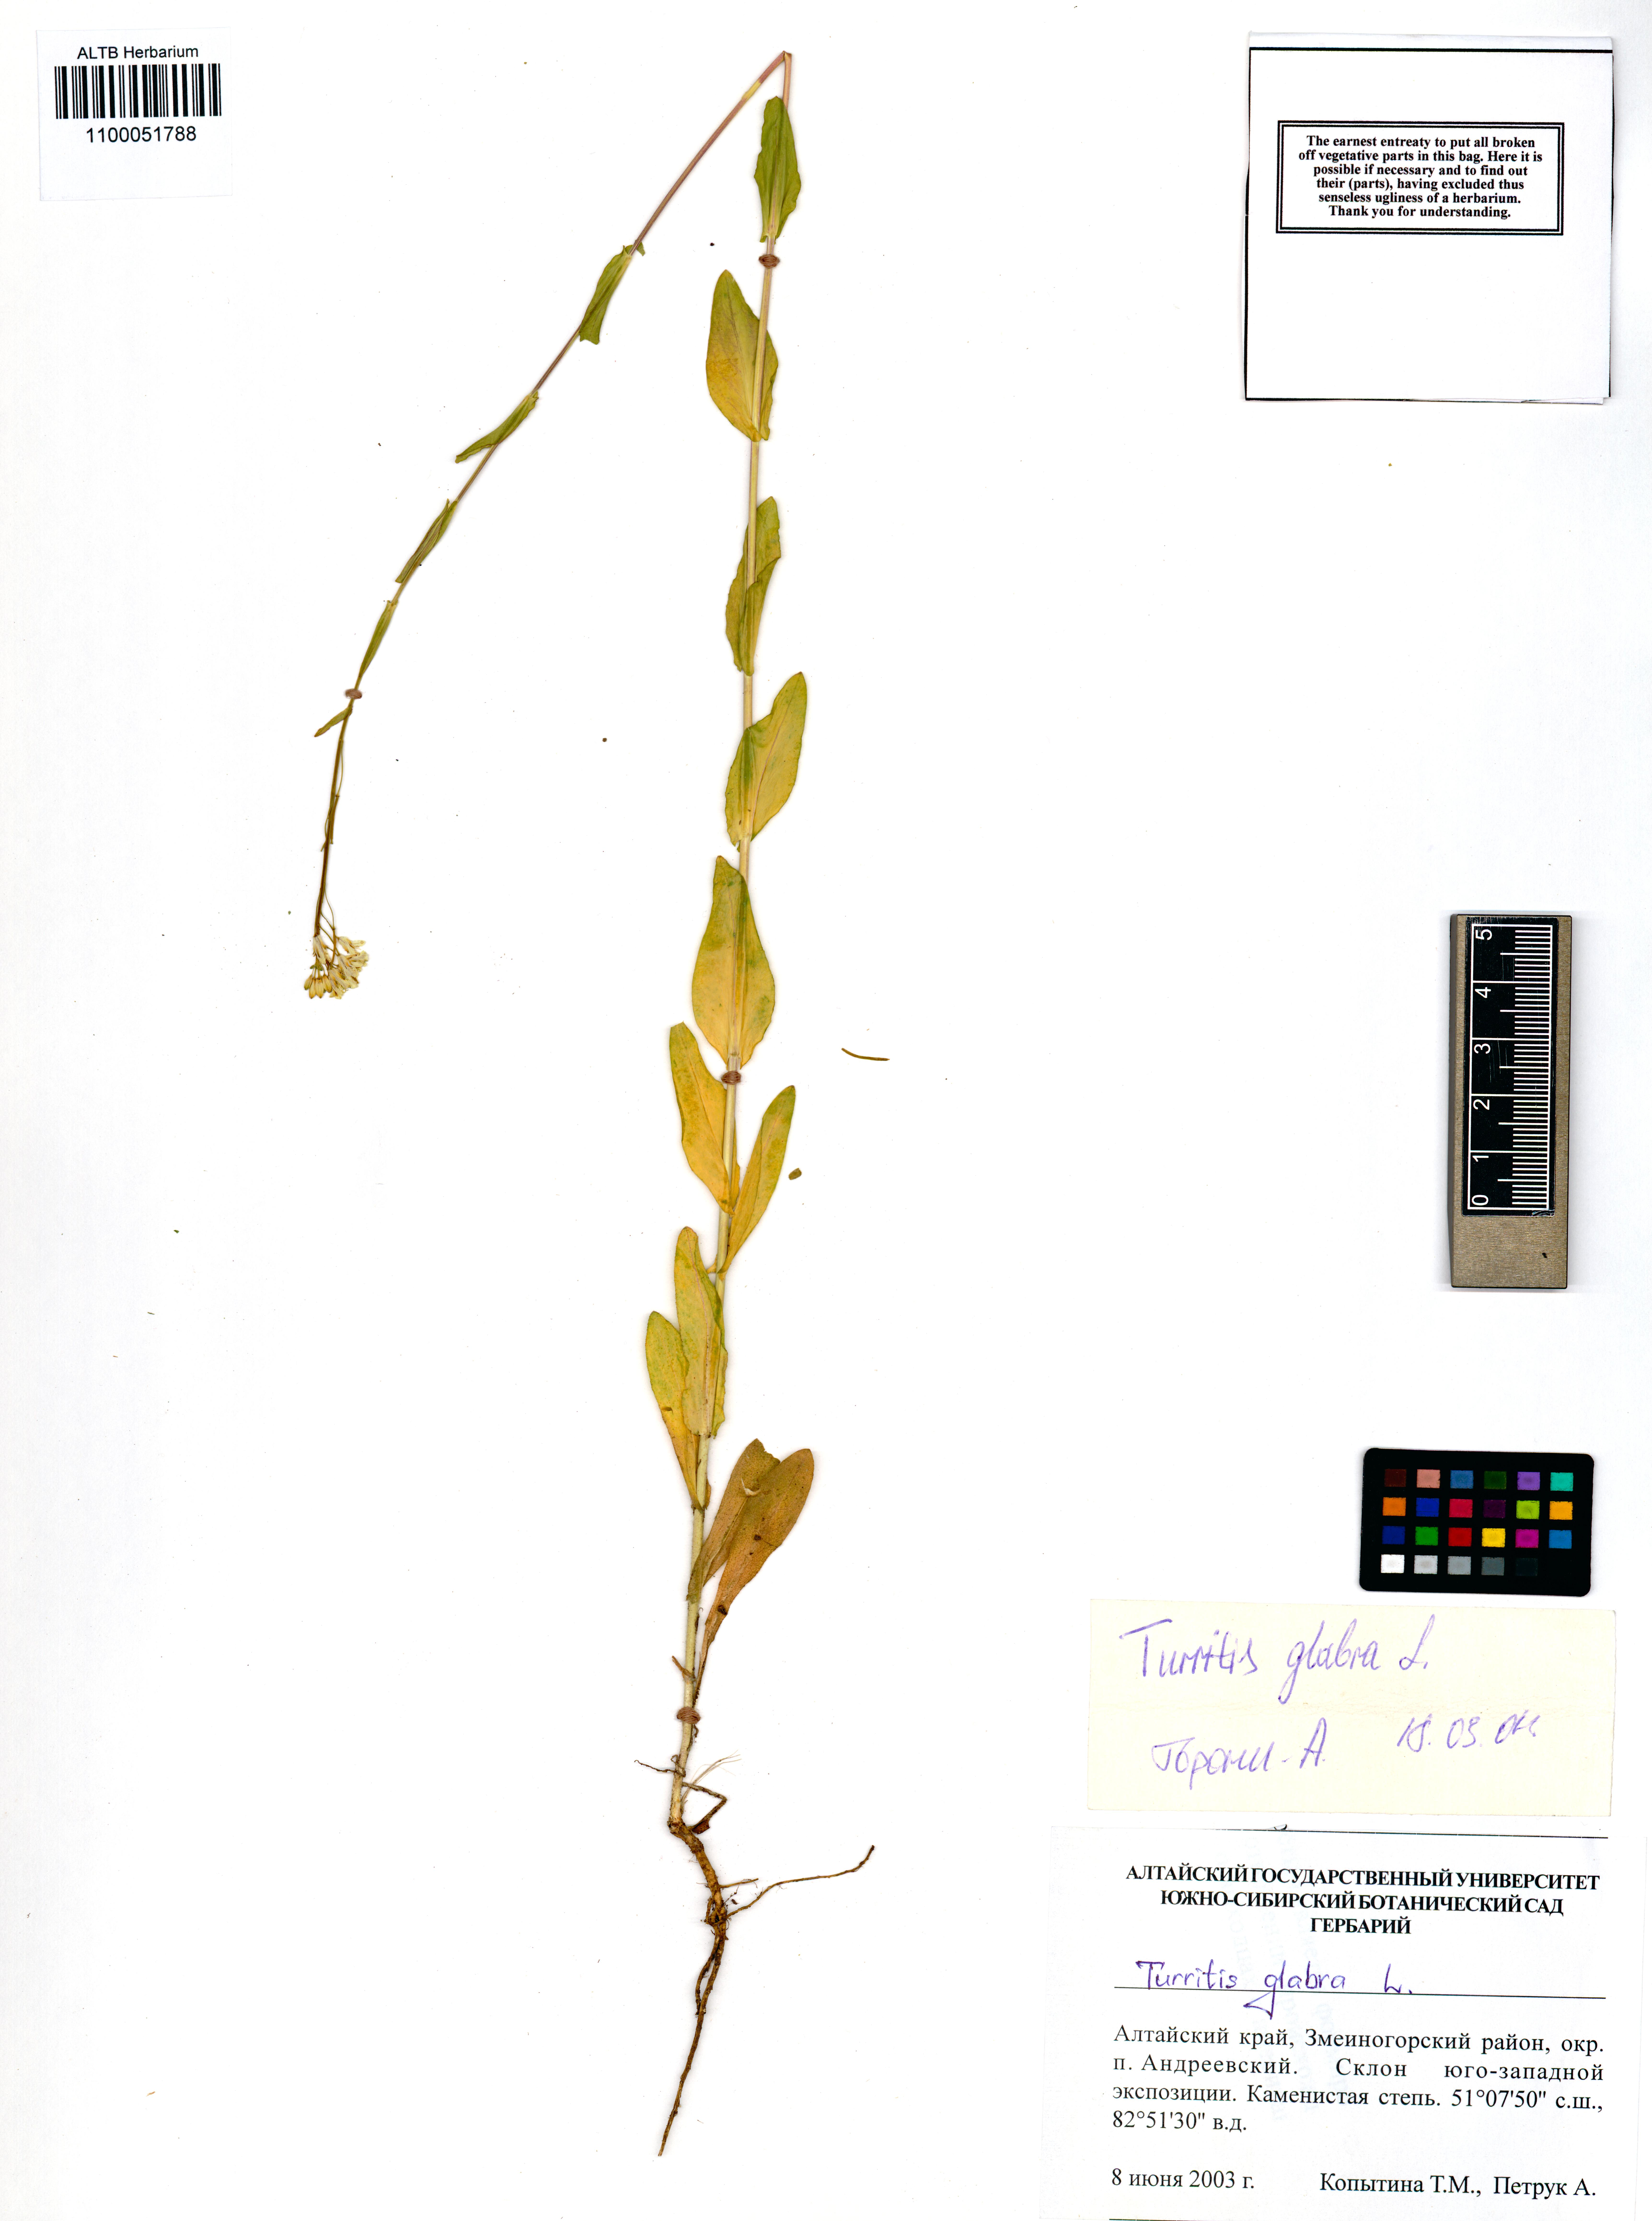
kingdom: Plantae
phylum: Tracheophyta
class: Magnoliopsida
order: Brassicales
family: Brassicaceae
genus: Turritis
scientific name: Turritis glabra
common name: Tower rockcress
